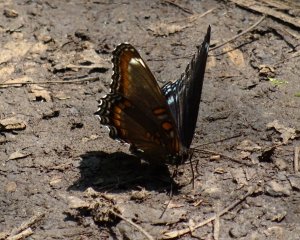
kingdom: Animalia
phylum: Arthropoda
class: Insecta
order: Lepidoptera
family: Nymphalidae
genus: Limenitis
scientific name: Limenitis astyanax
